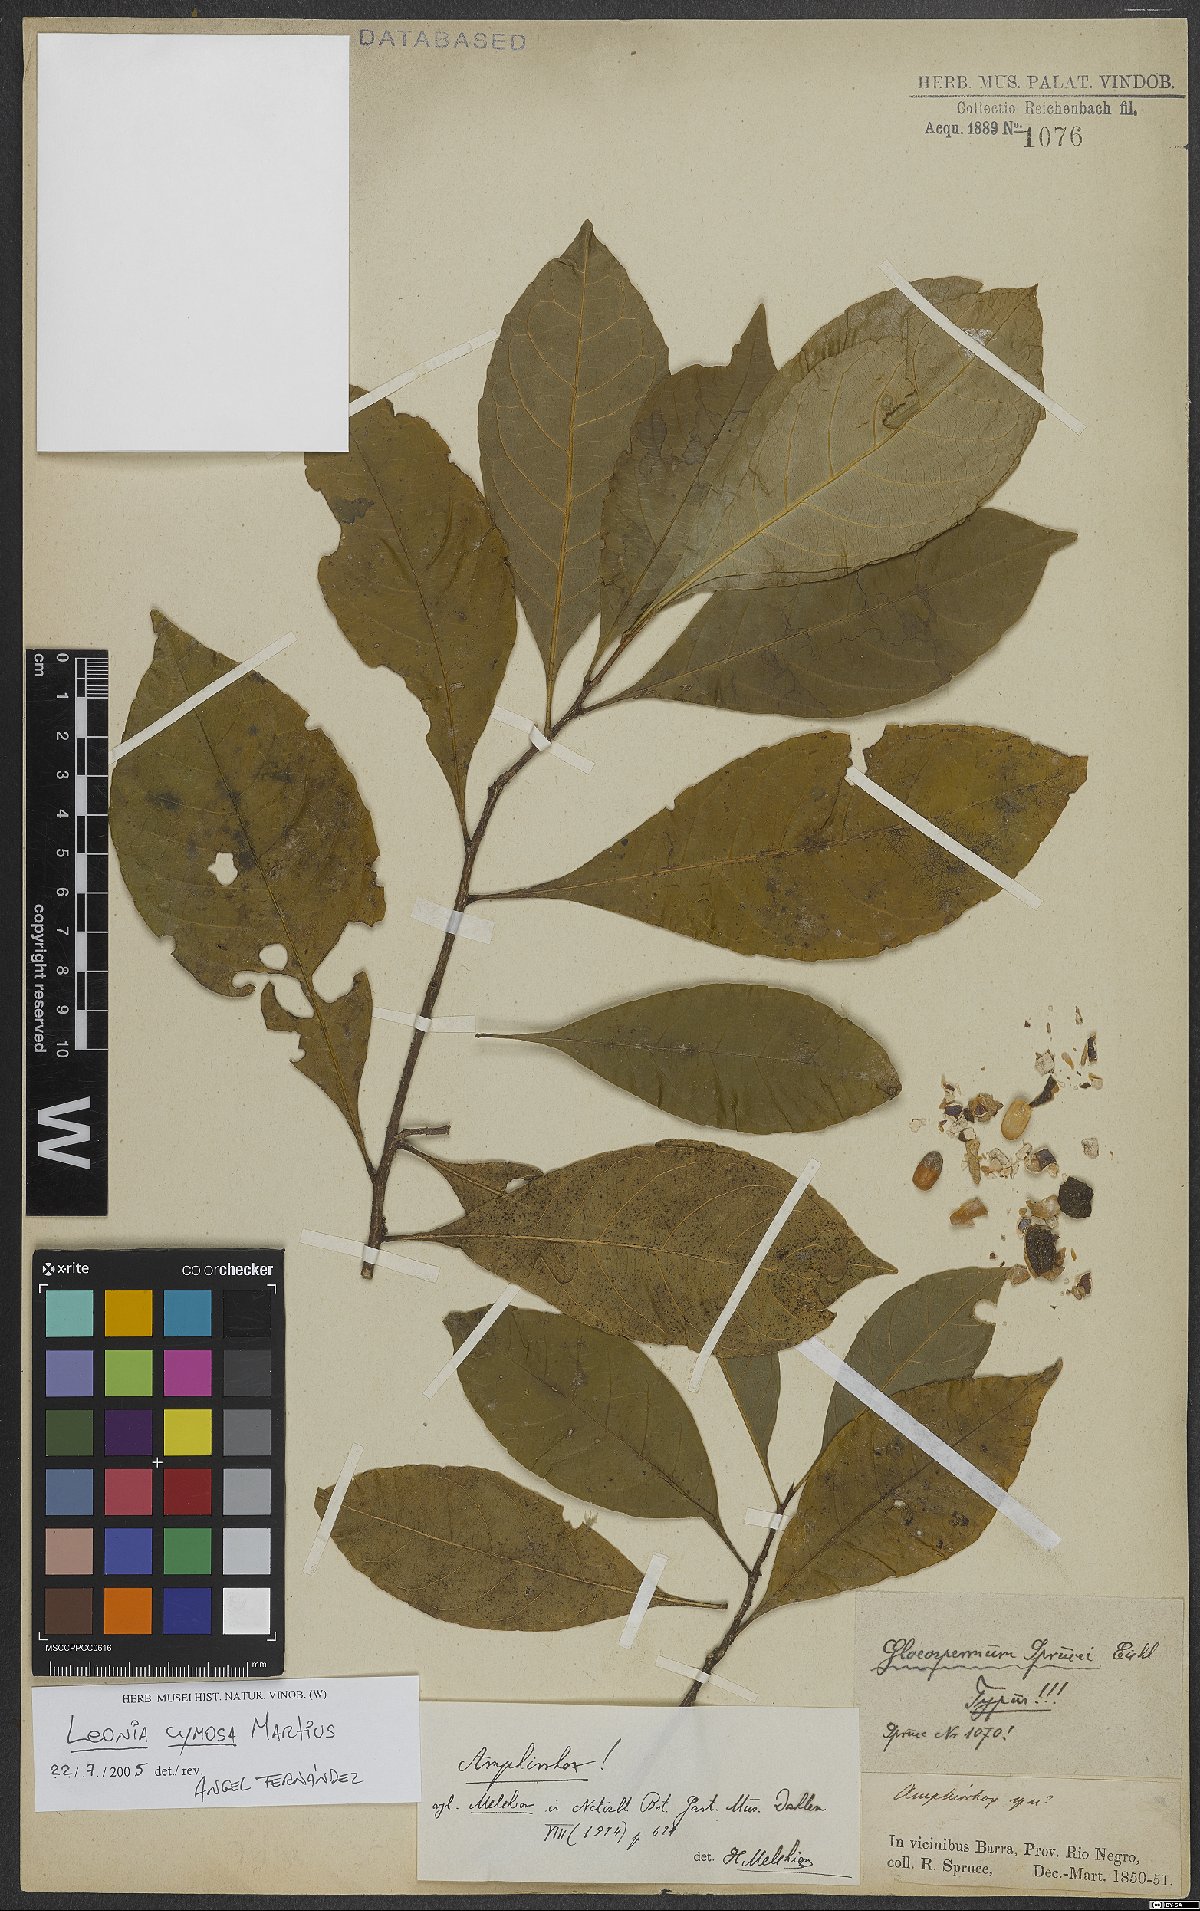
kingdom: Plantae
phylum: Tracheophyta
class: Magnoliopsida
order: Malpighiales
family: Violaceae
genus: Leonia
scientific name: Leonia cymosa
